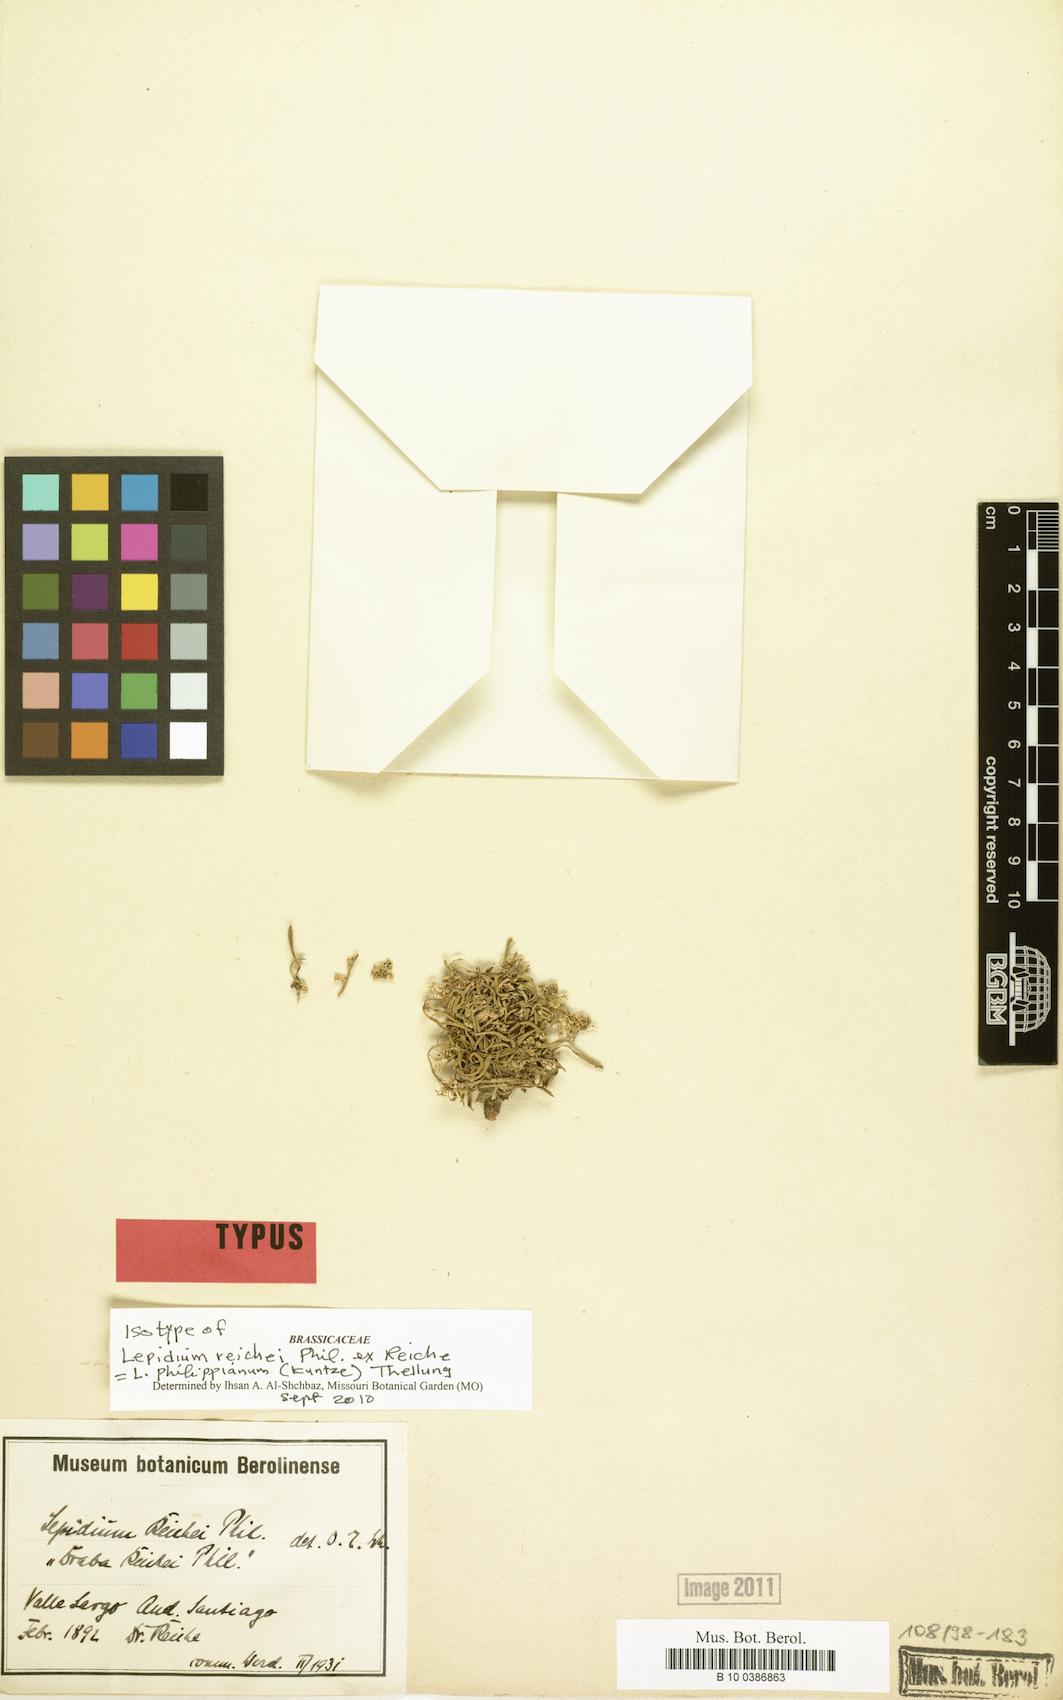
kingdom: Plantae
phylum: Tracheophyta
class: Magnoliopsida
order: Brassicales
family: Brassicaceae
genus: Lepidium
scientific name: Lepidium philippianum
